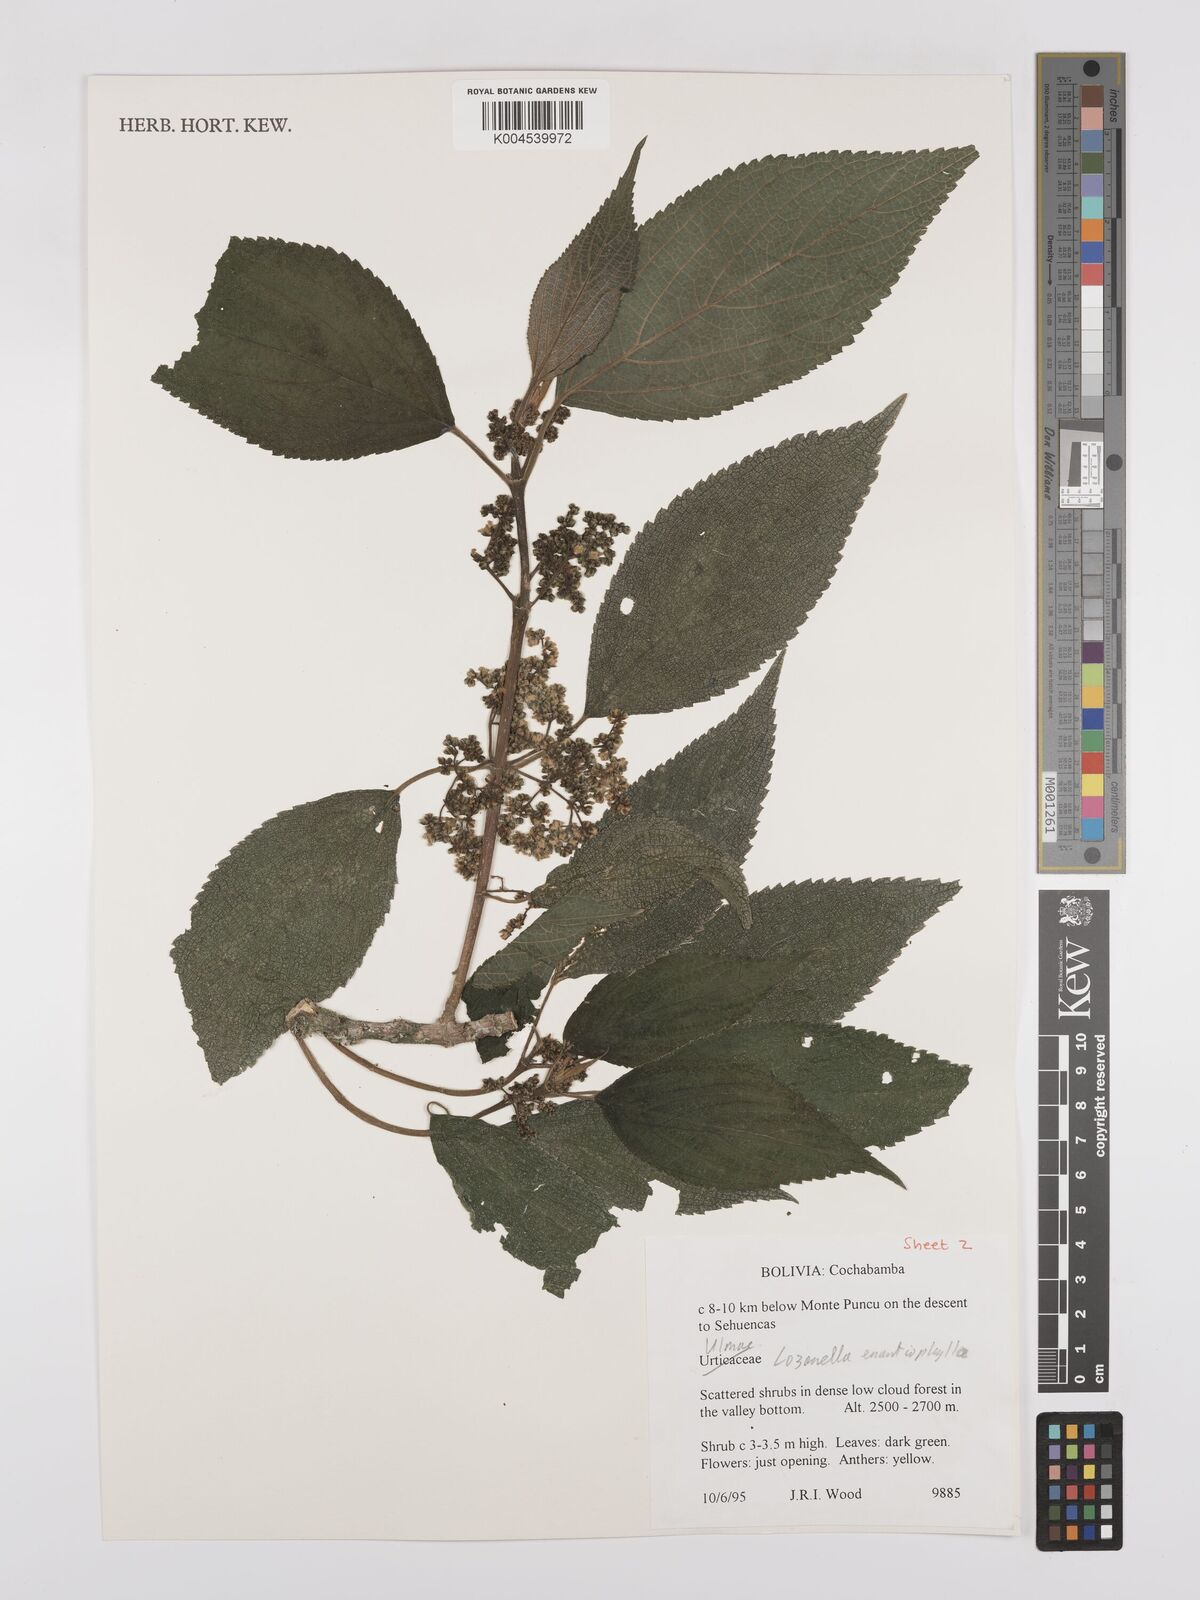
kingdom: Plantae
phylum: Tracheophyta
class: Magnoliopsida
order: Rosales
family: Cannabaceae
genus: Lozanella
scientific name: Lozanella enantiophylla
